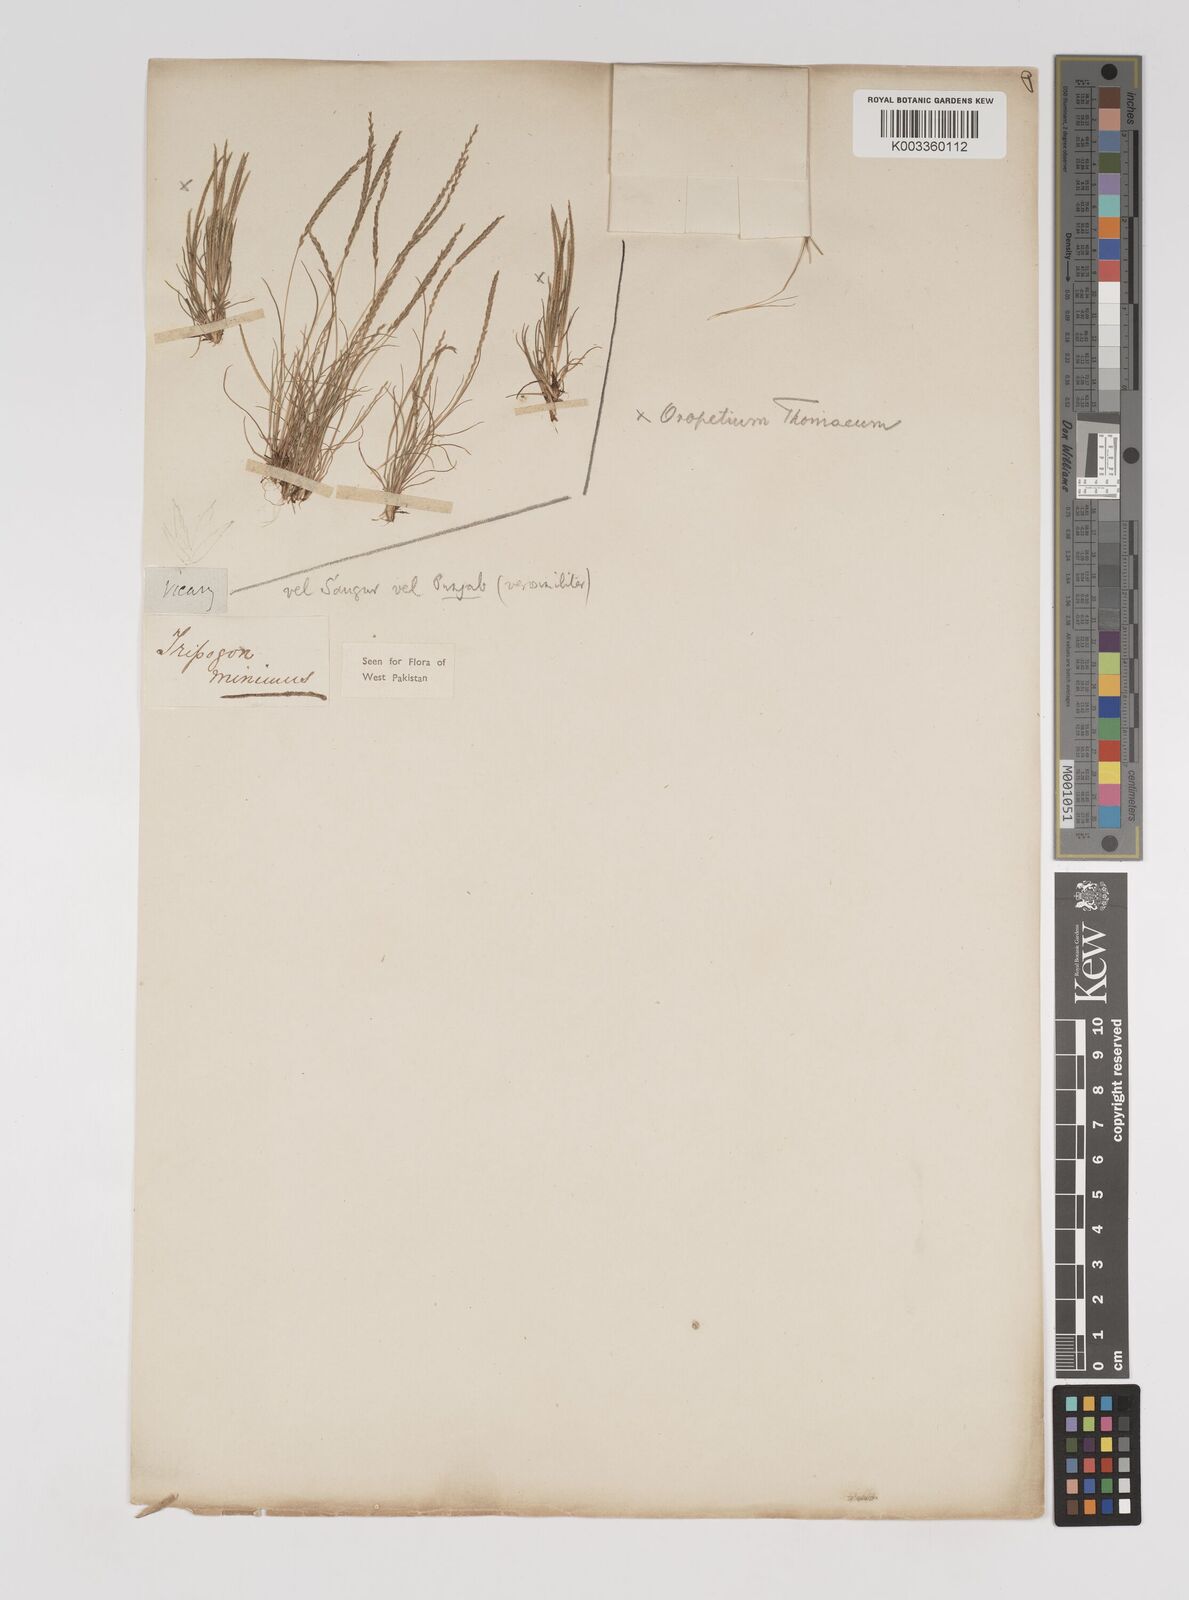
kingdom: Plantae
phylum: Tracheophyta
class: Liliopsida
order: Poales
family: Poaceae
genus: Oropetium
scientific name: Oropetium thomaeum
